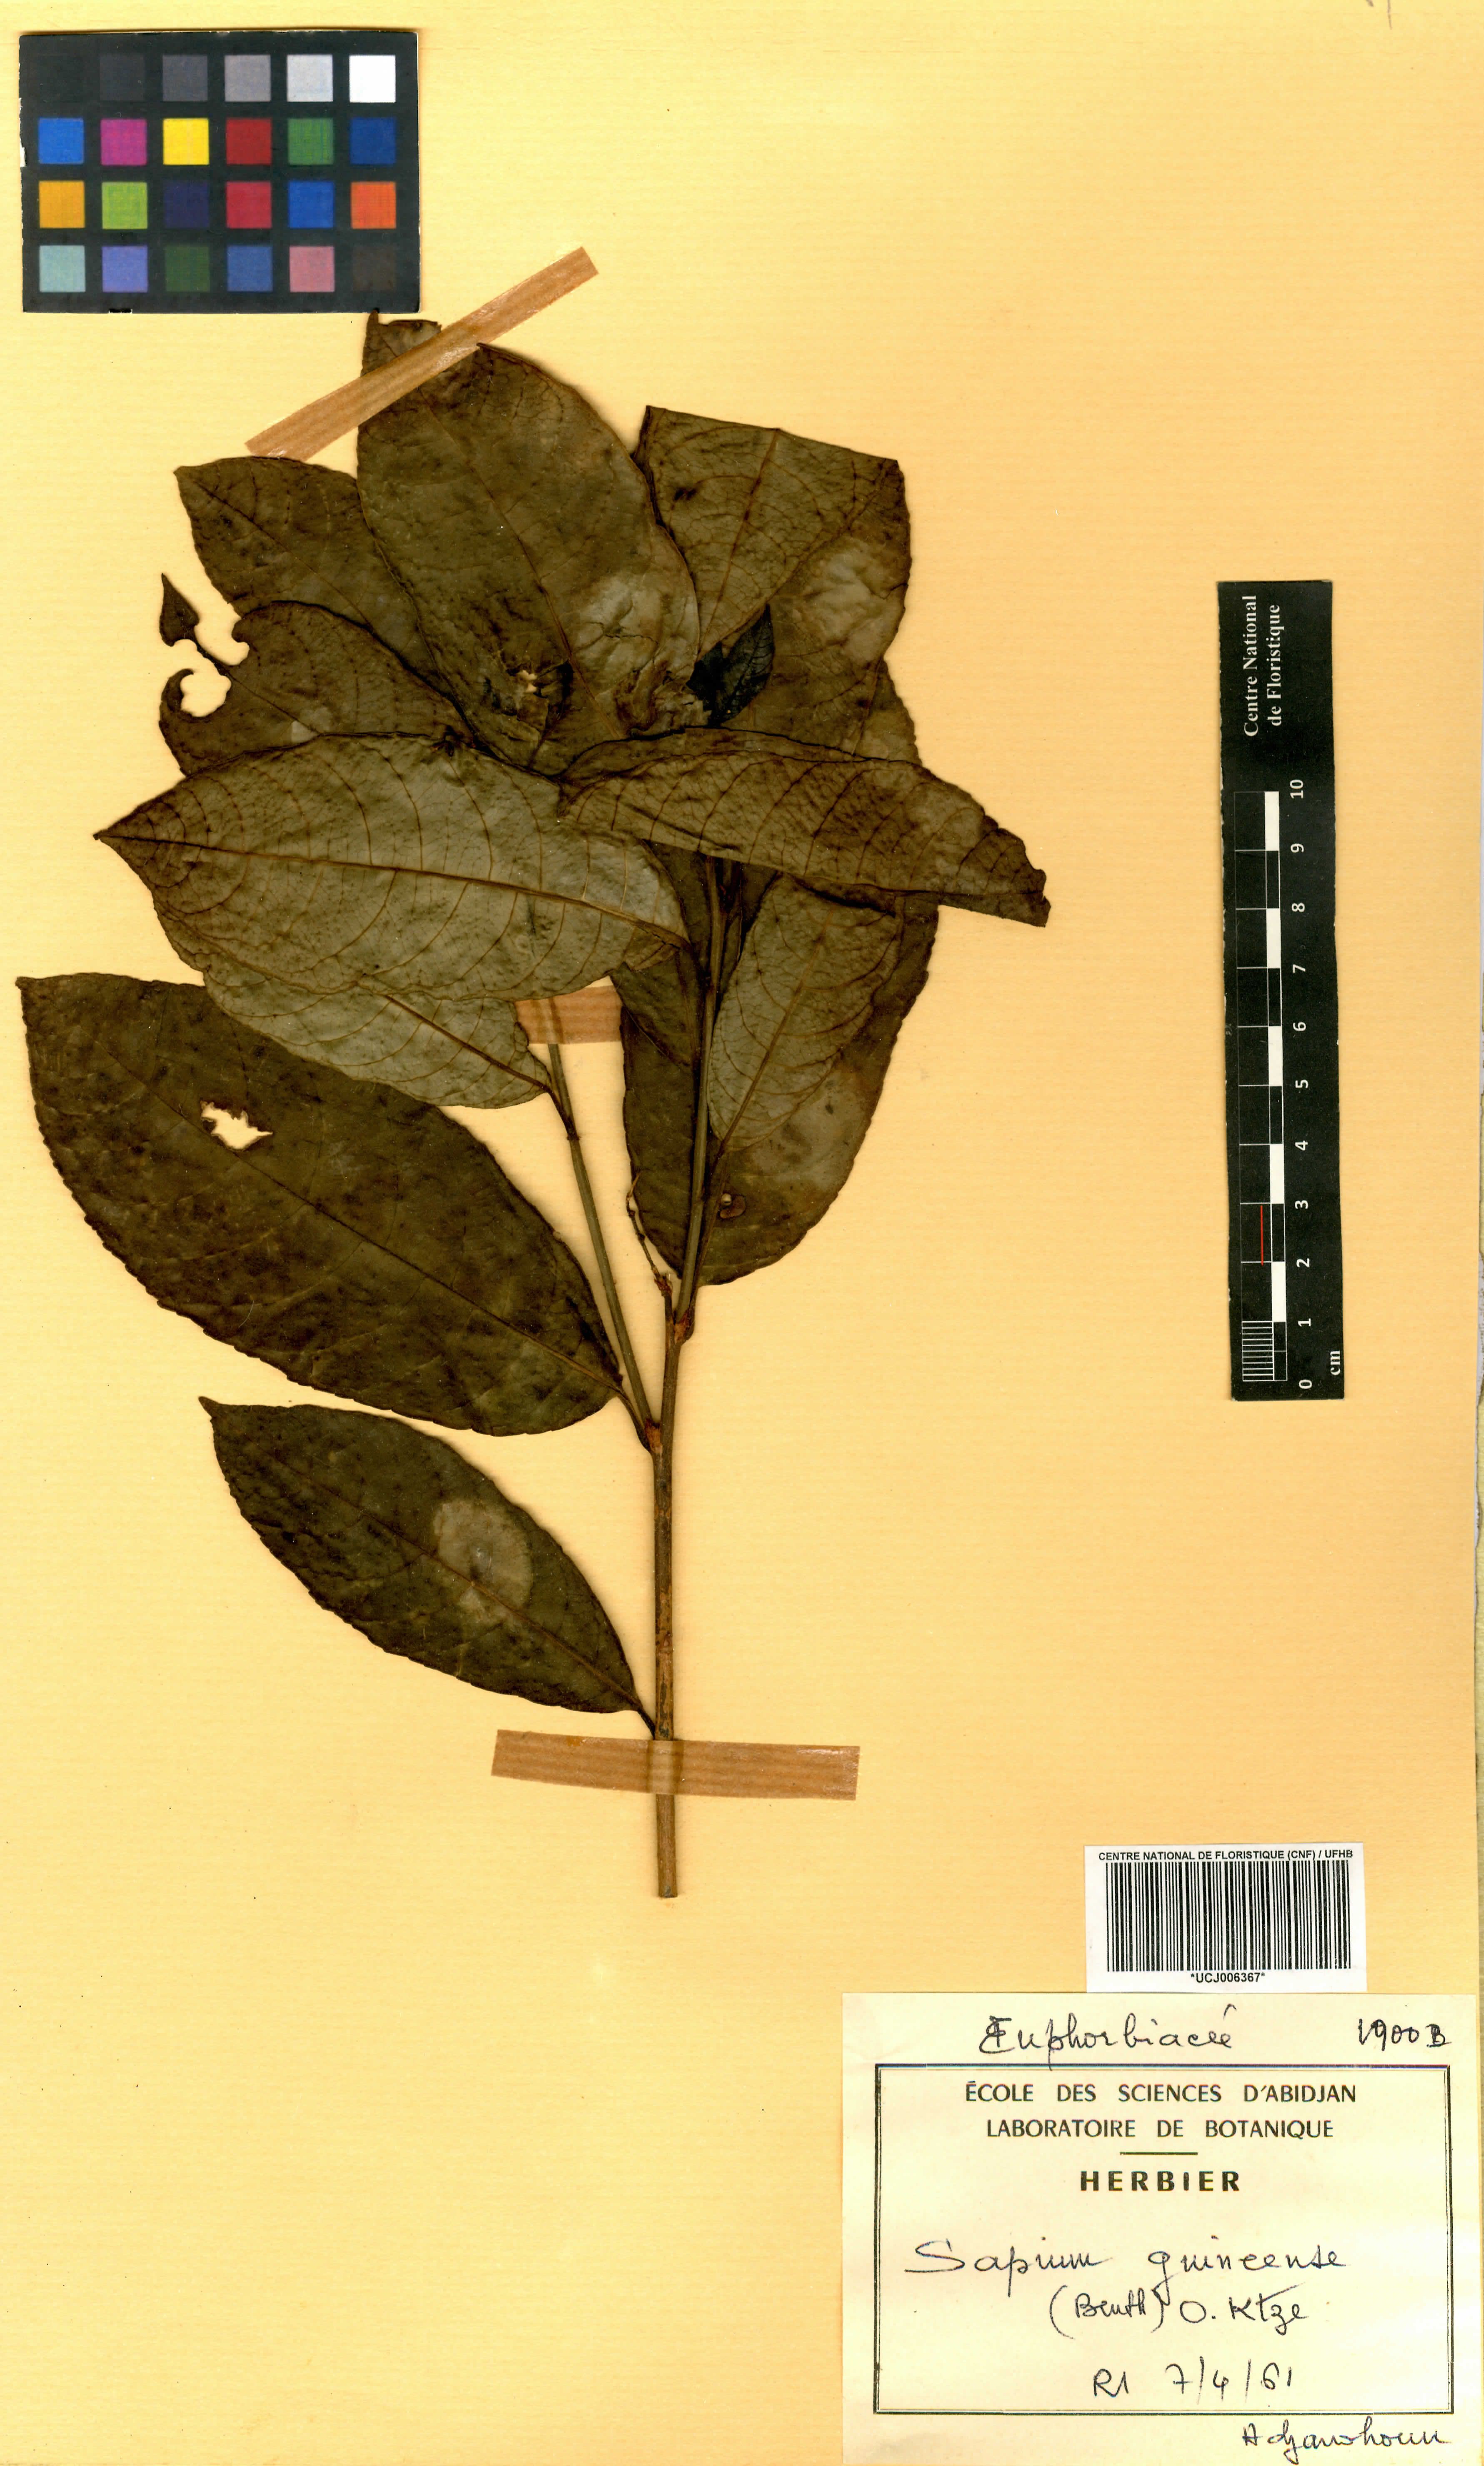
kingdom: Plantae
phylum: Tracheophyta
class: Magnoliopsida
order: Malpighiales
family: Euphorbiaceae
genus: Excoecaria
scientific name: Excoecaria guineensis
